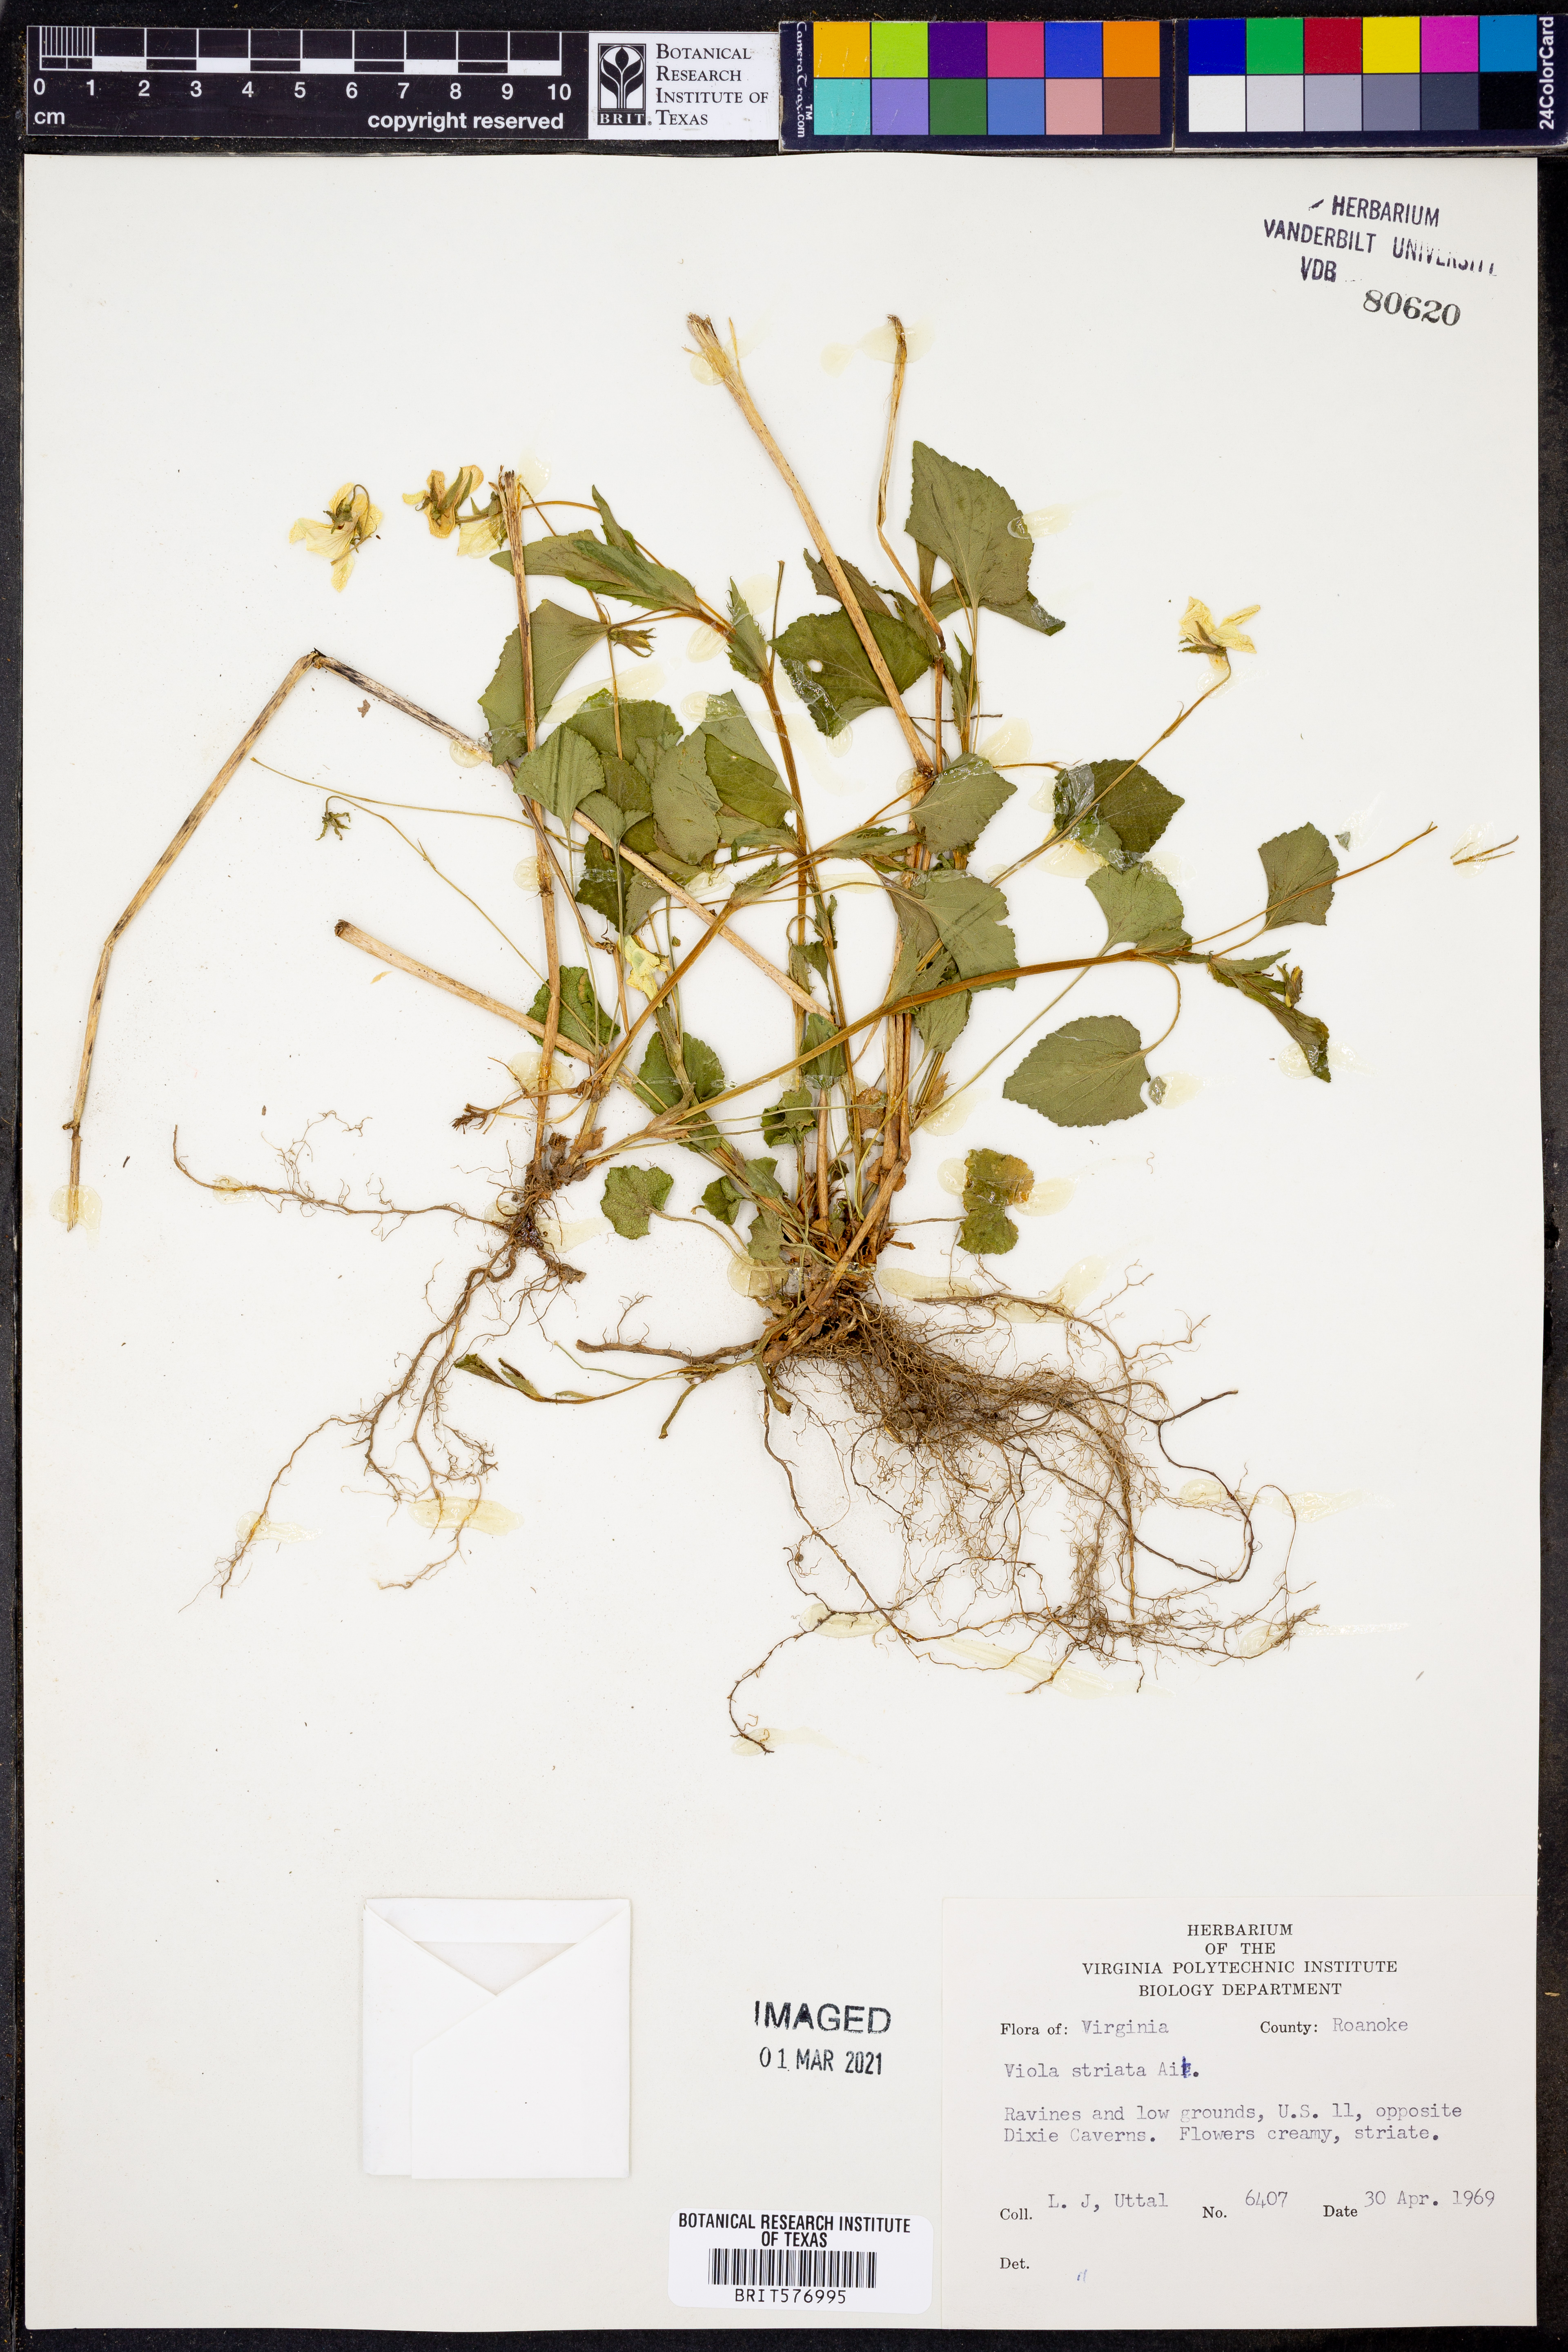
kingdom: Plantae
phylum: Tracheophyta
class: Magnoliopsida
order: Malpighiales
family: Violaceae
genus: Viola
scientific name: Viola striata
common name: Cream violet
